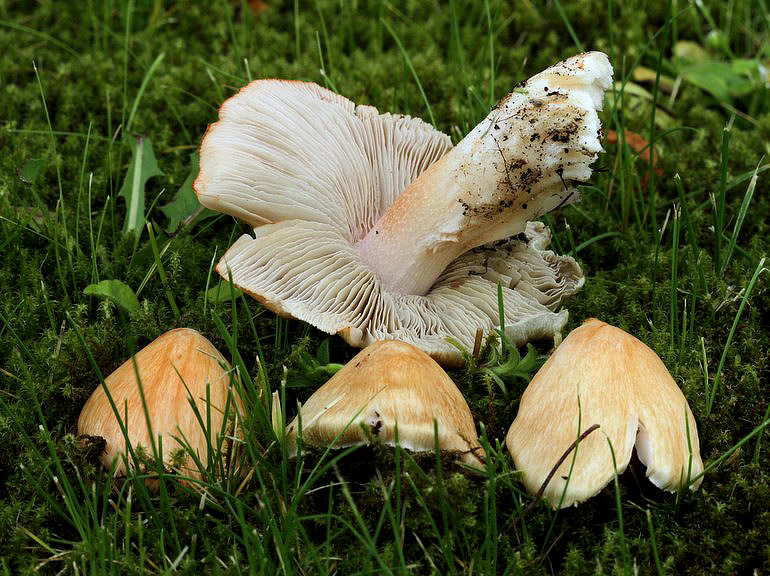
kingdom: Fungi
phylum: Basidiomycota
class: Agaricomycetes
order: Agaricales
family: Inocybaceae
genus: Inosperma
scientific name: Inosperma erubescens
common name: giftig trævlhat
